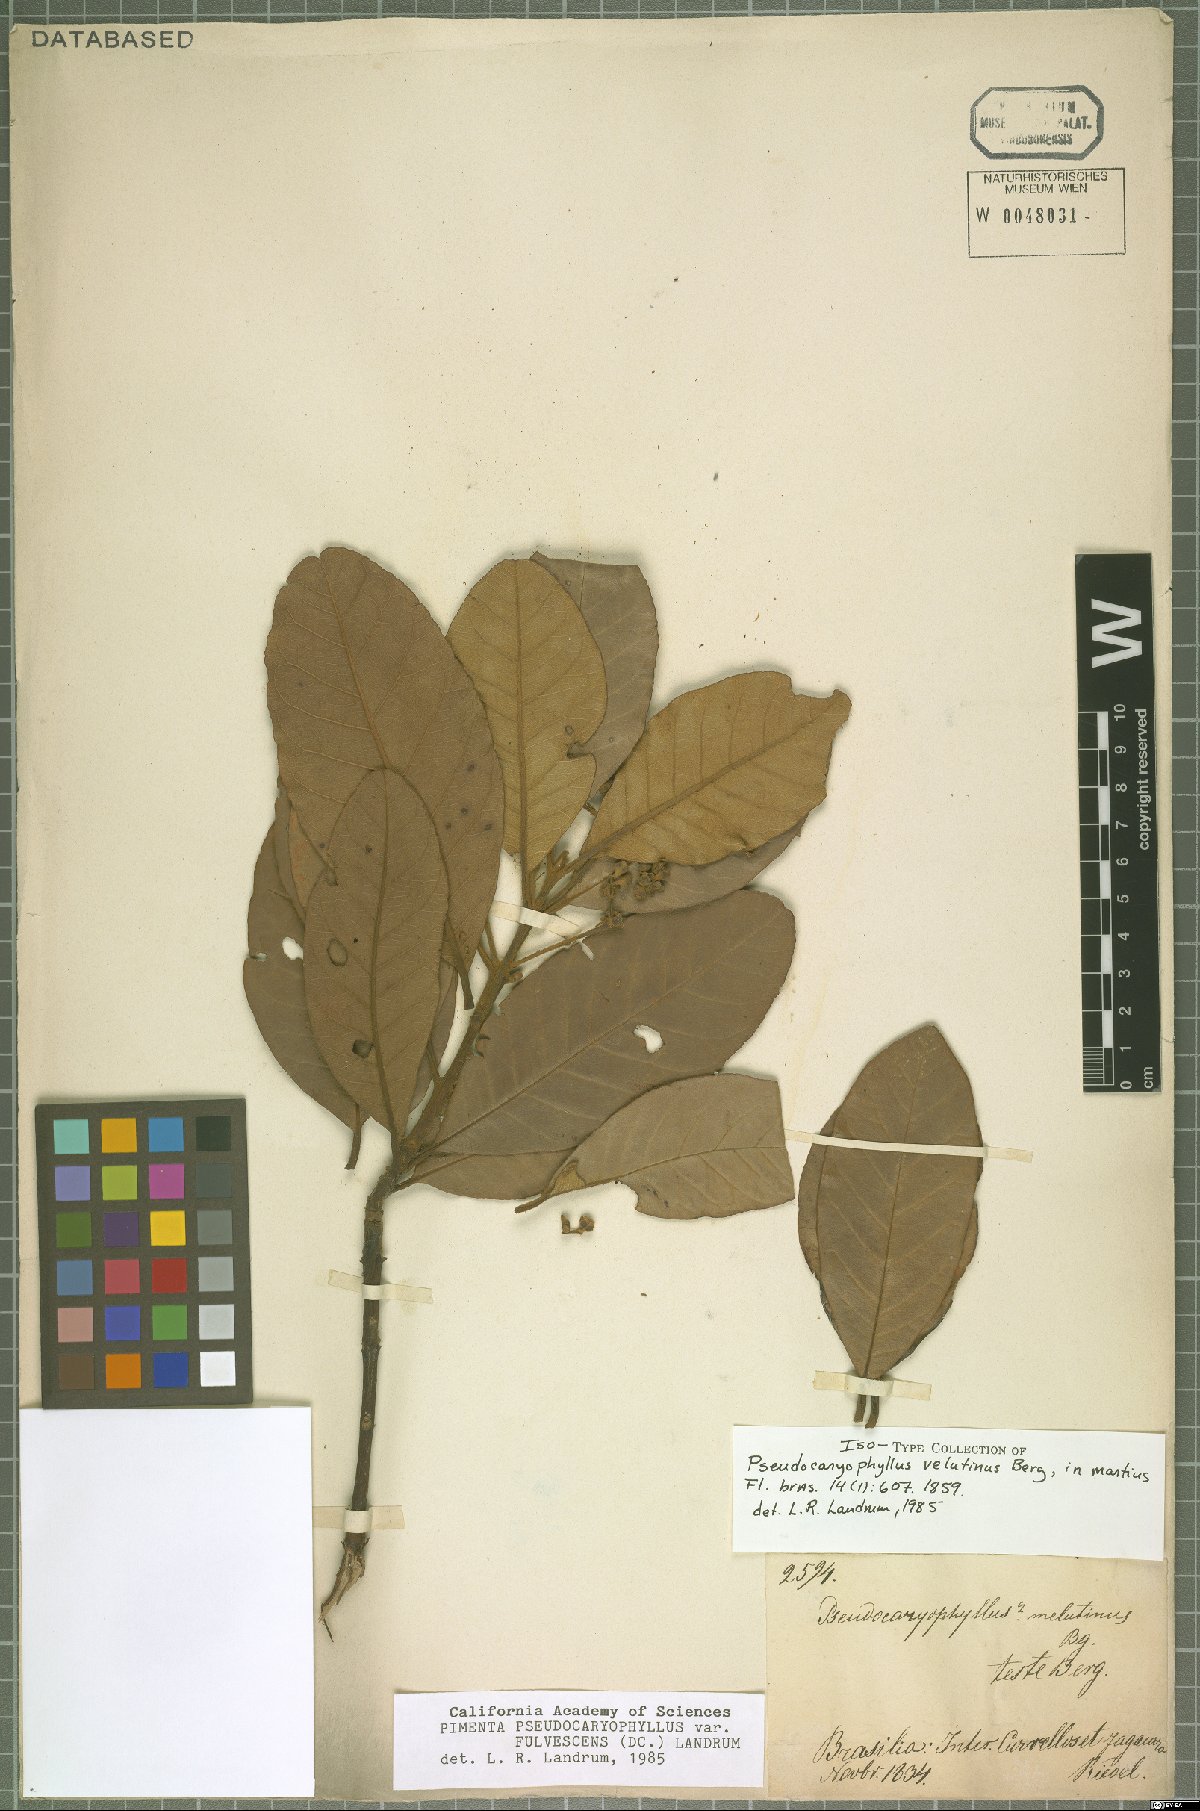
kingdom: Plantae
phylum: Tracheophyta
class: Magnoliopsida
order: Myrtales
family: Myrtaceae
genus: Pimenta
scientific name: Pimenta pseudocaryophyllus
